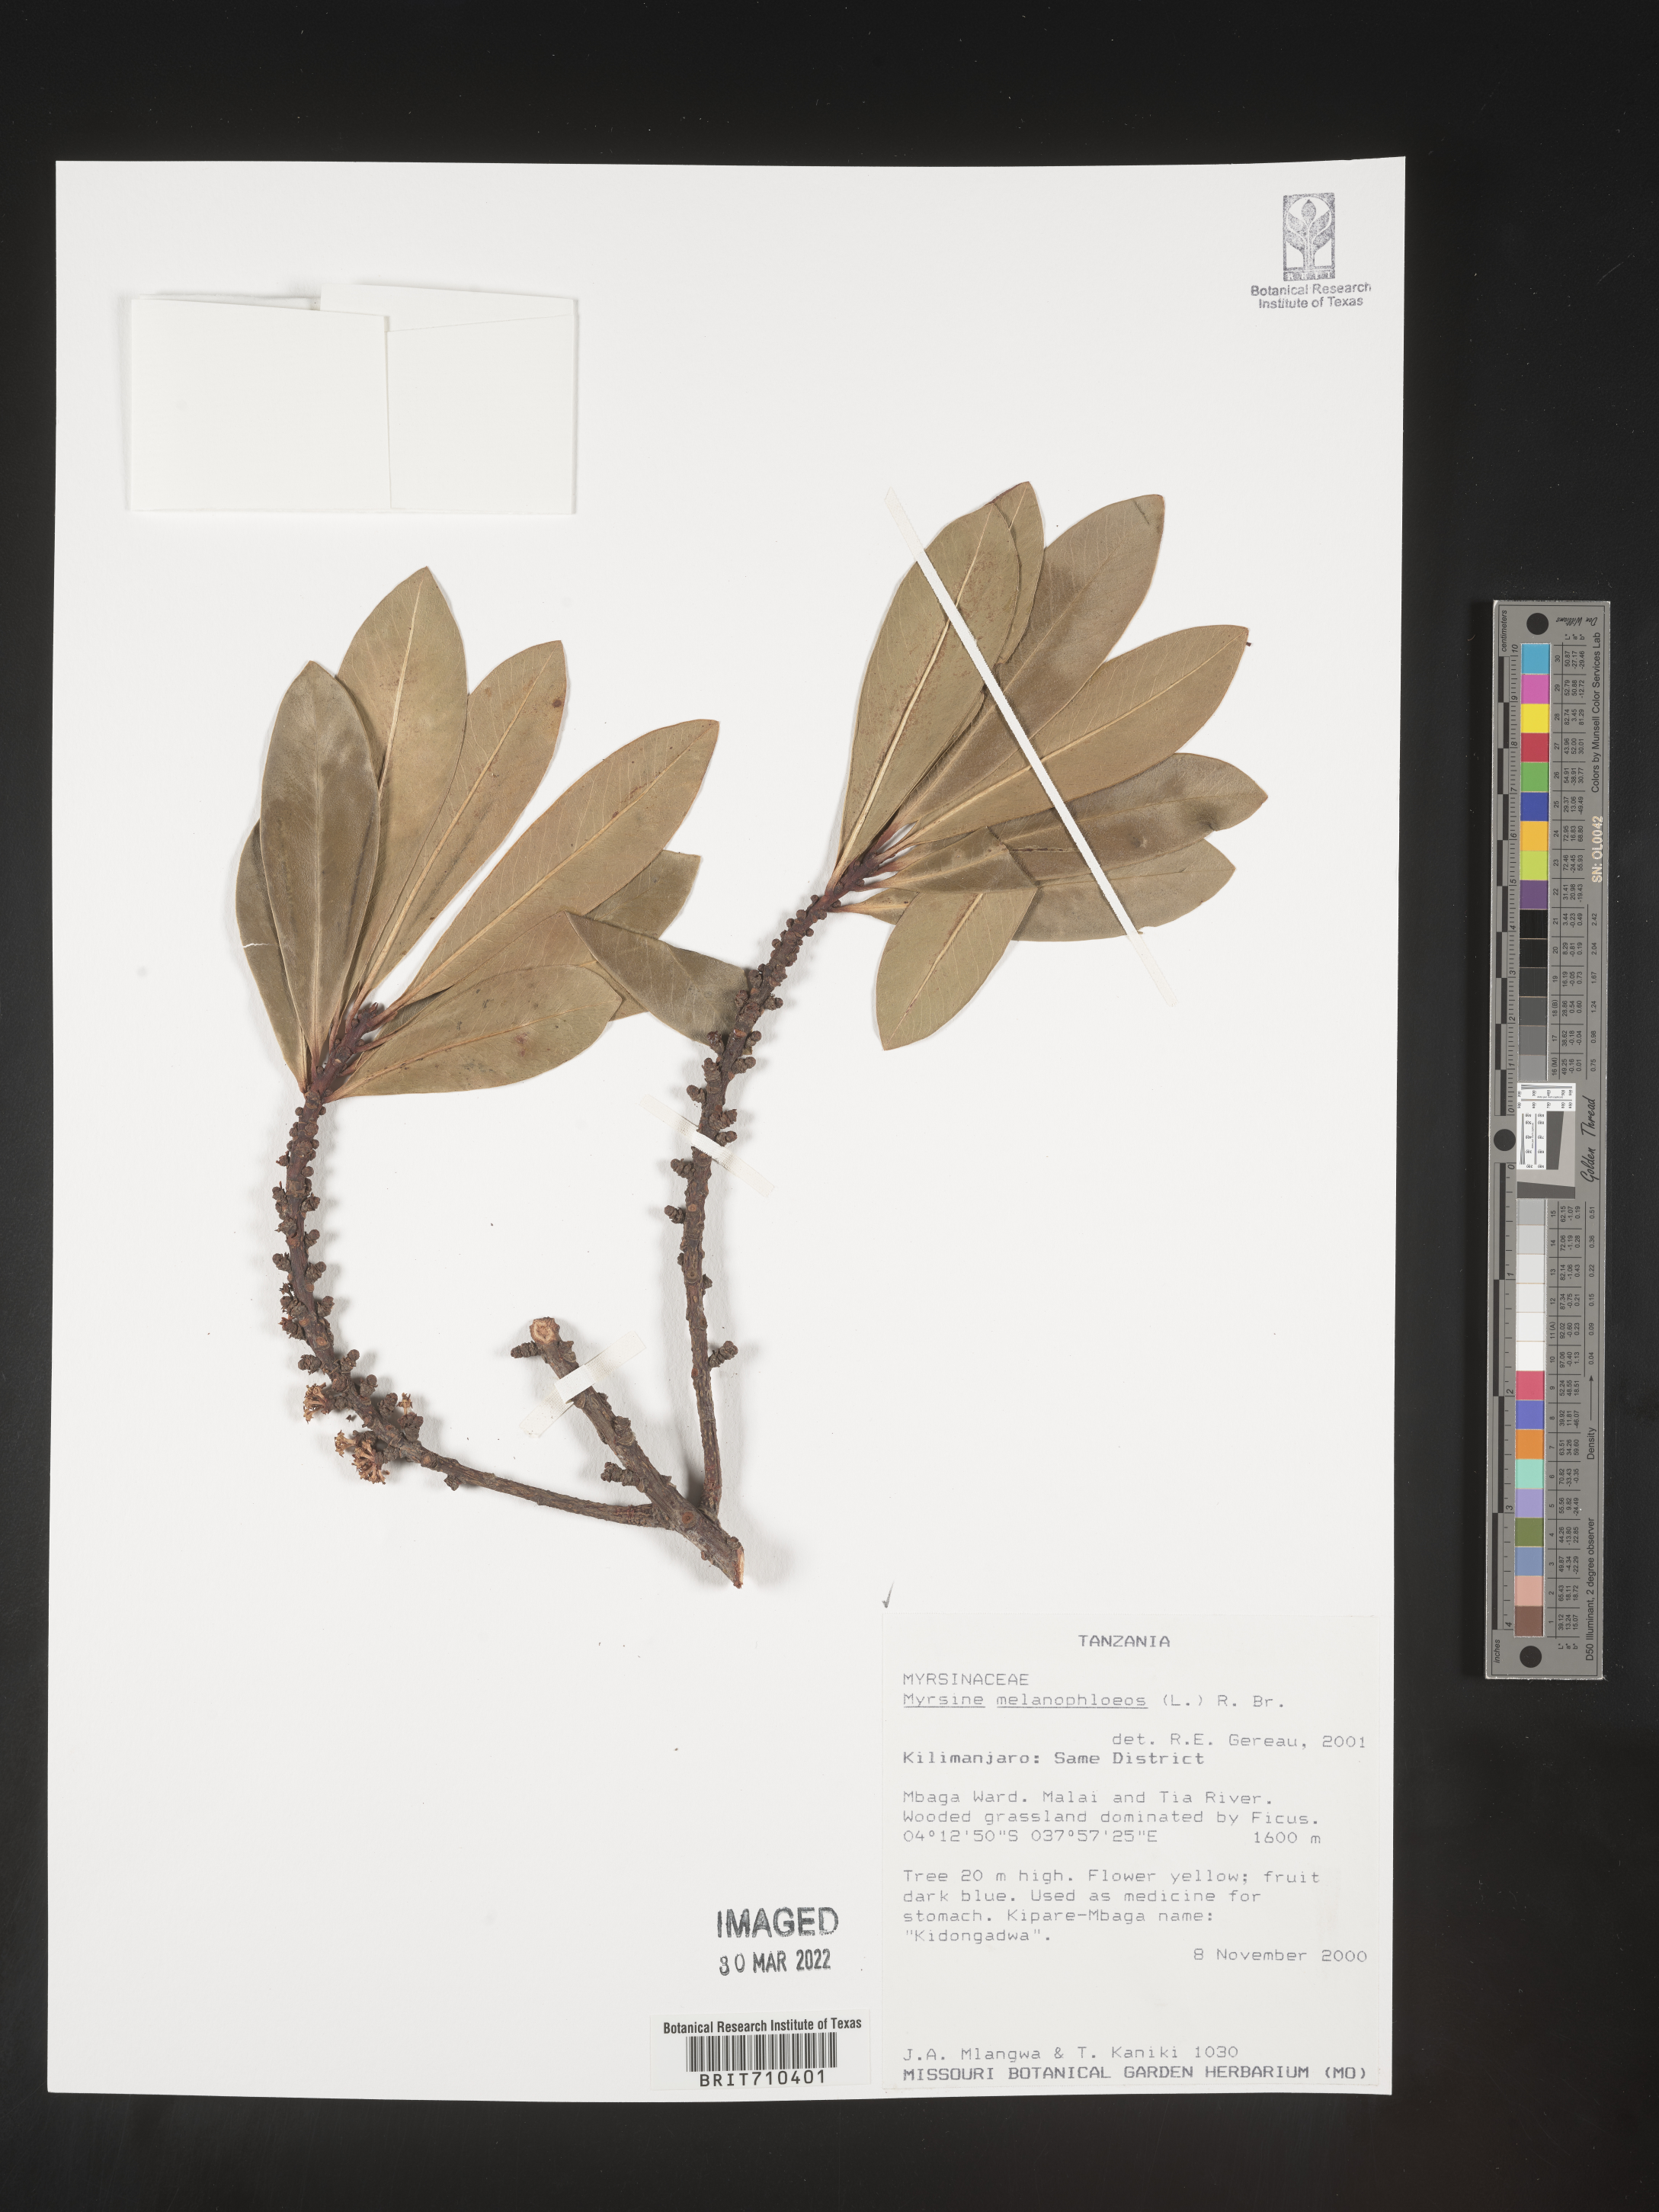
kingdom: Plantae
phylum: Tracheophyta
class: Magnoliopsida
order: Ericales
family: Primulaceae
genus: Myrsine
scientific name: Myrsine
